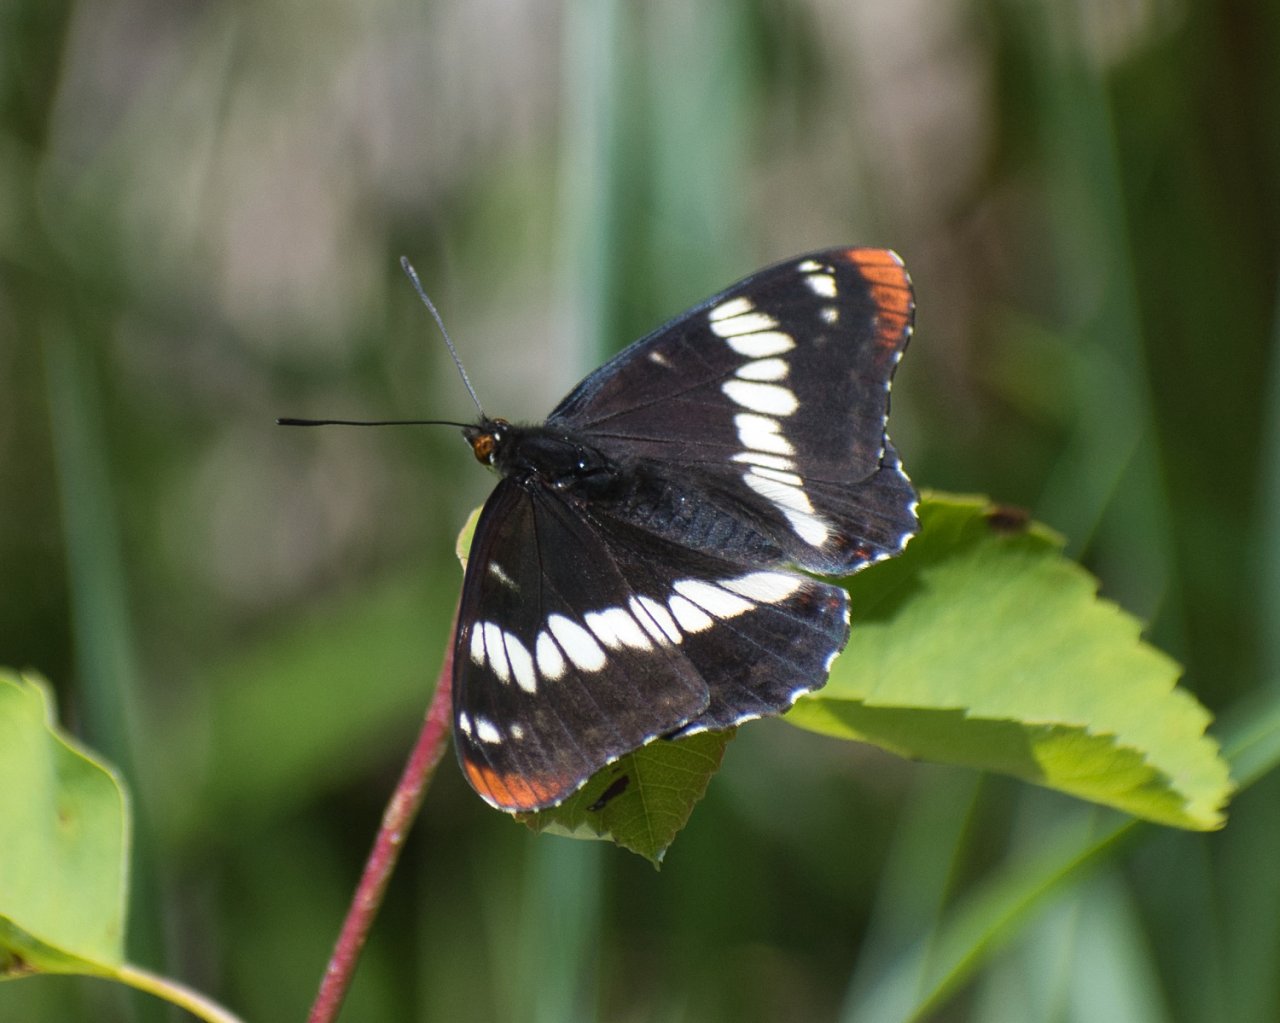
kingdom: Animalia
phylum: Arthropoda
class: Insecta
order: Lepidoptera
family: Nymphalidae
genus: Limenitis
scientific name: Limenitis lorquini
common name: Lorquin's Admiral
